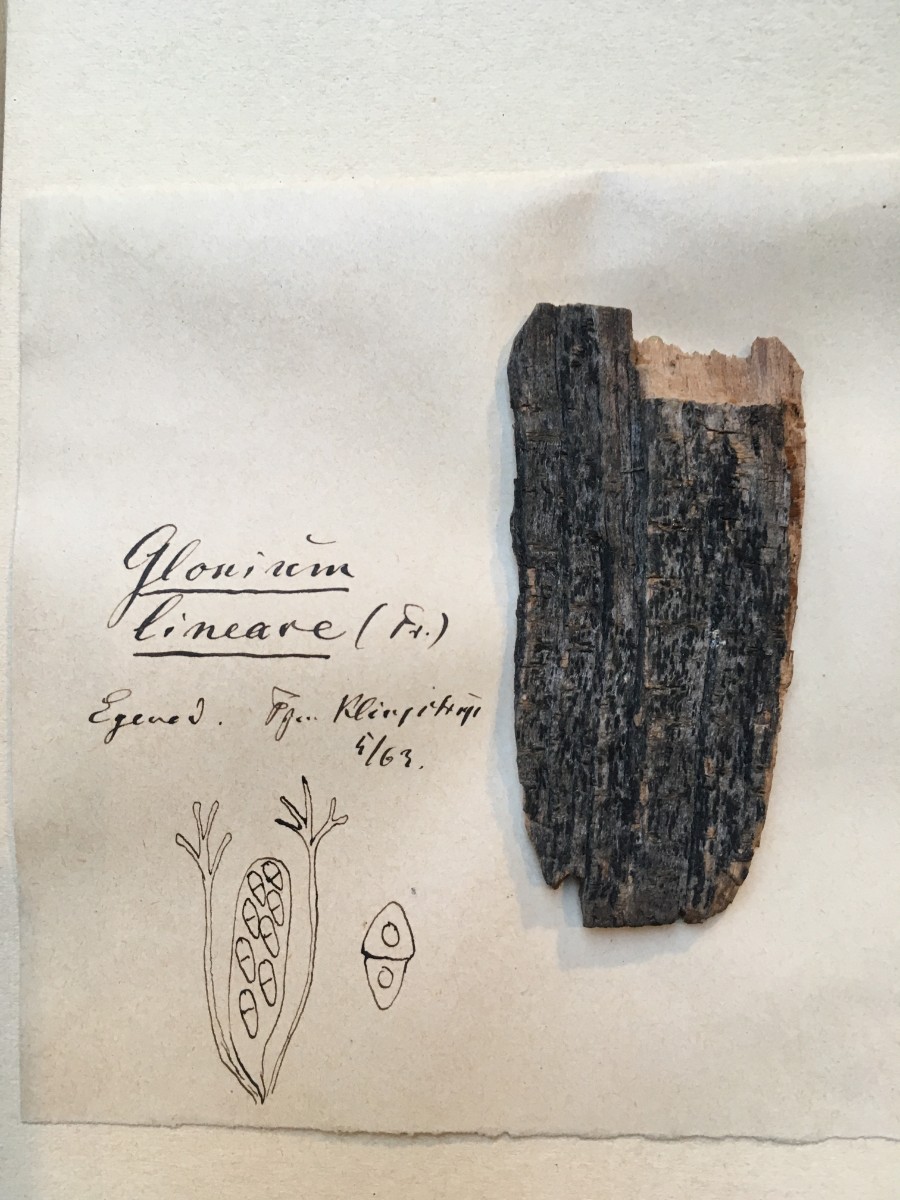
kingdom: Fungi
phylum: Ascomycota
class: Dothideomycetes
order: Mytilinidiales
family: Gloniaceae
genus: Glonium
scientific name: Glonium lineare
